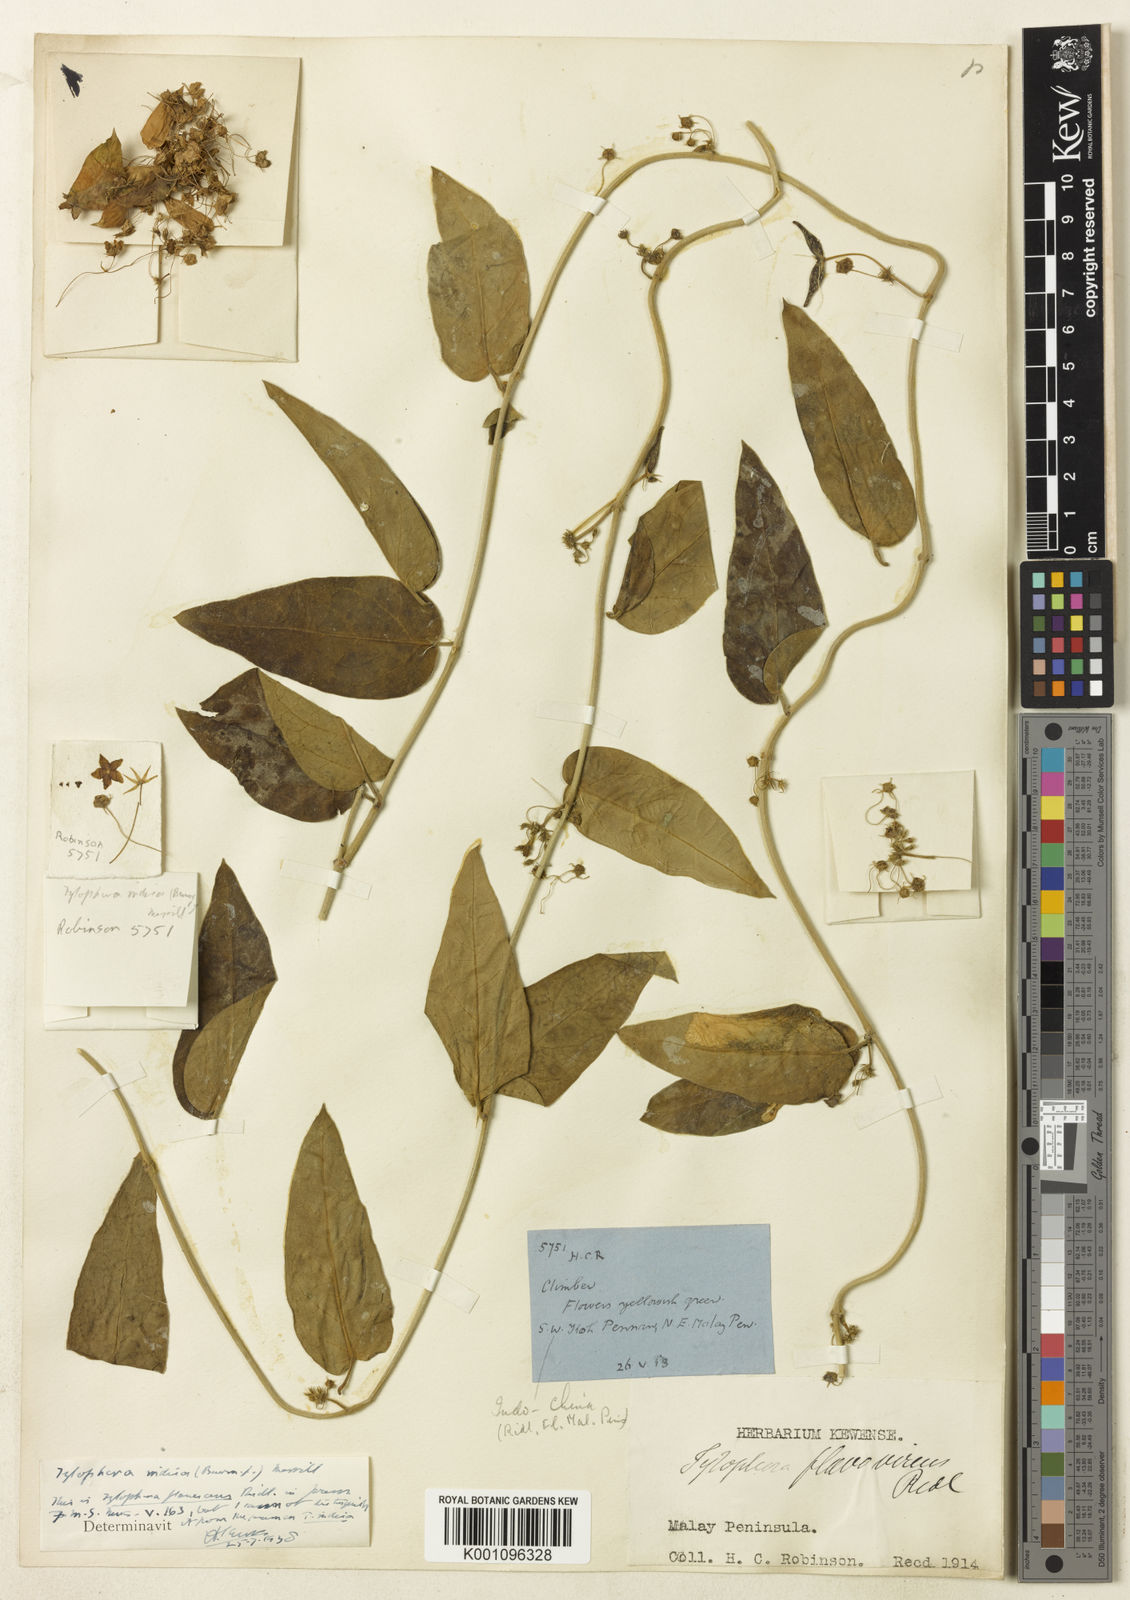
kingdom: Plantae
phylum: Tracheophyta
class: Magnoliopsida
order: Gentianales
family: Apocynaceae
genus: Vincetoxicum
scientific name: Vincetoxicum indicum
